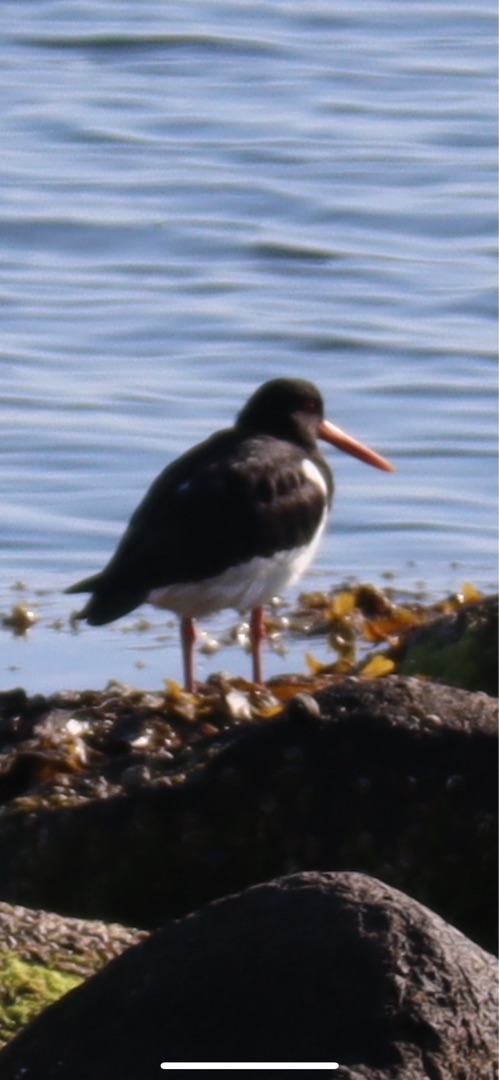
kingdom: Animalia
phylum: Chordata
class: Aves
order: Charadriiformes
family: Haematopodidae
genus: Haematopus
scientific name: Haematopus ostralegus
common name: Strandskade
